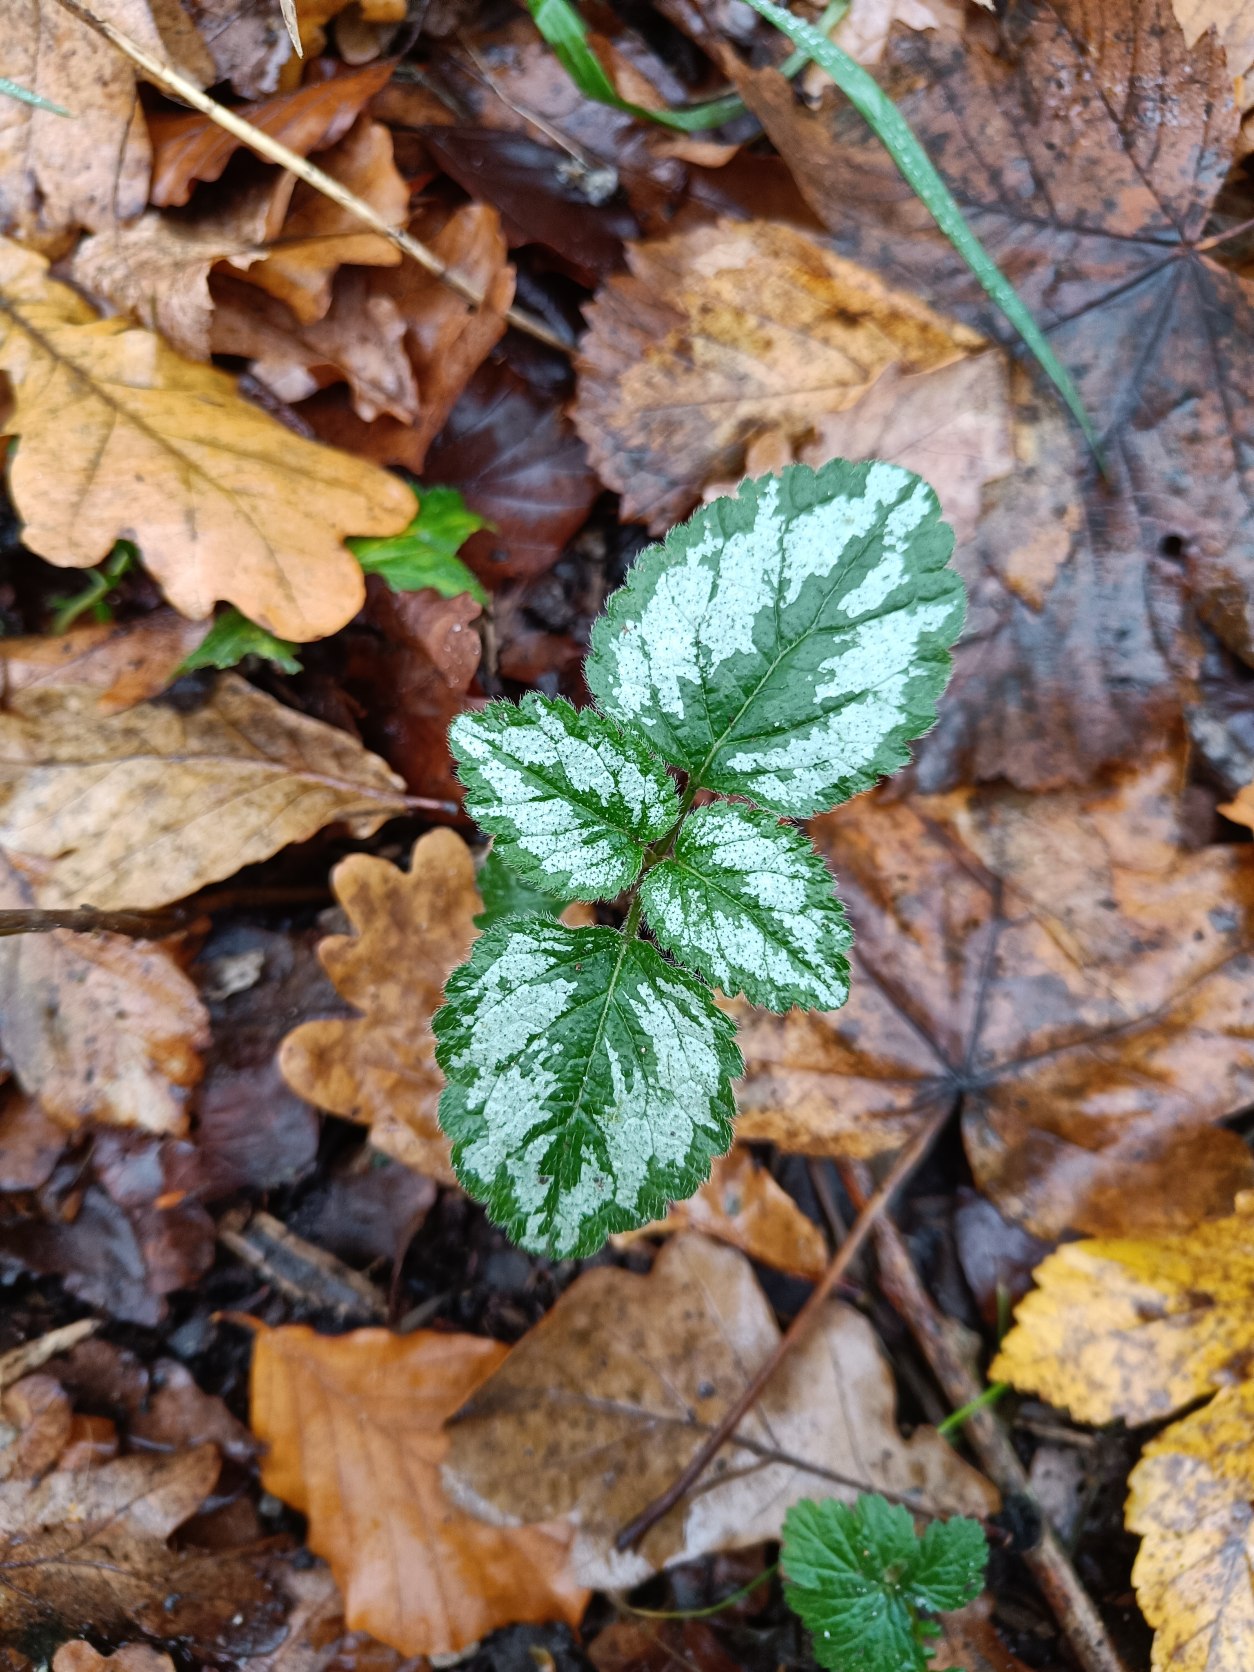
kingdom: Plantae
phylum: Tracheophyta
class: Magnoliopsida
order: Lamiales
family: Lamiaceae
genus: Lamium
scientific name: Lamium galeobdolon
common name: Have-guldnælde
